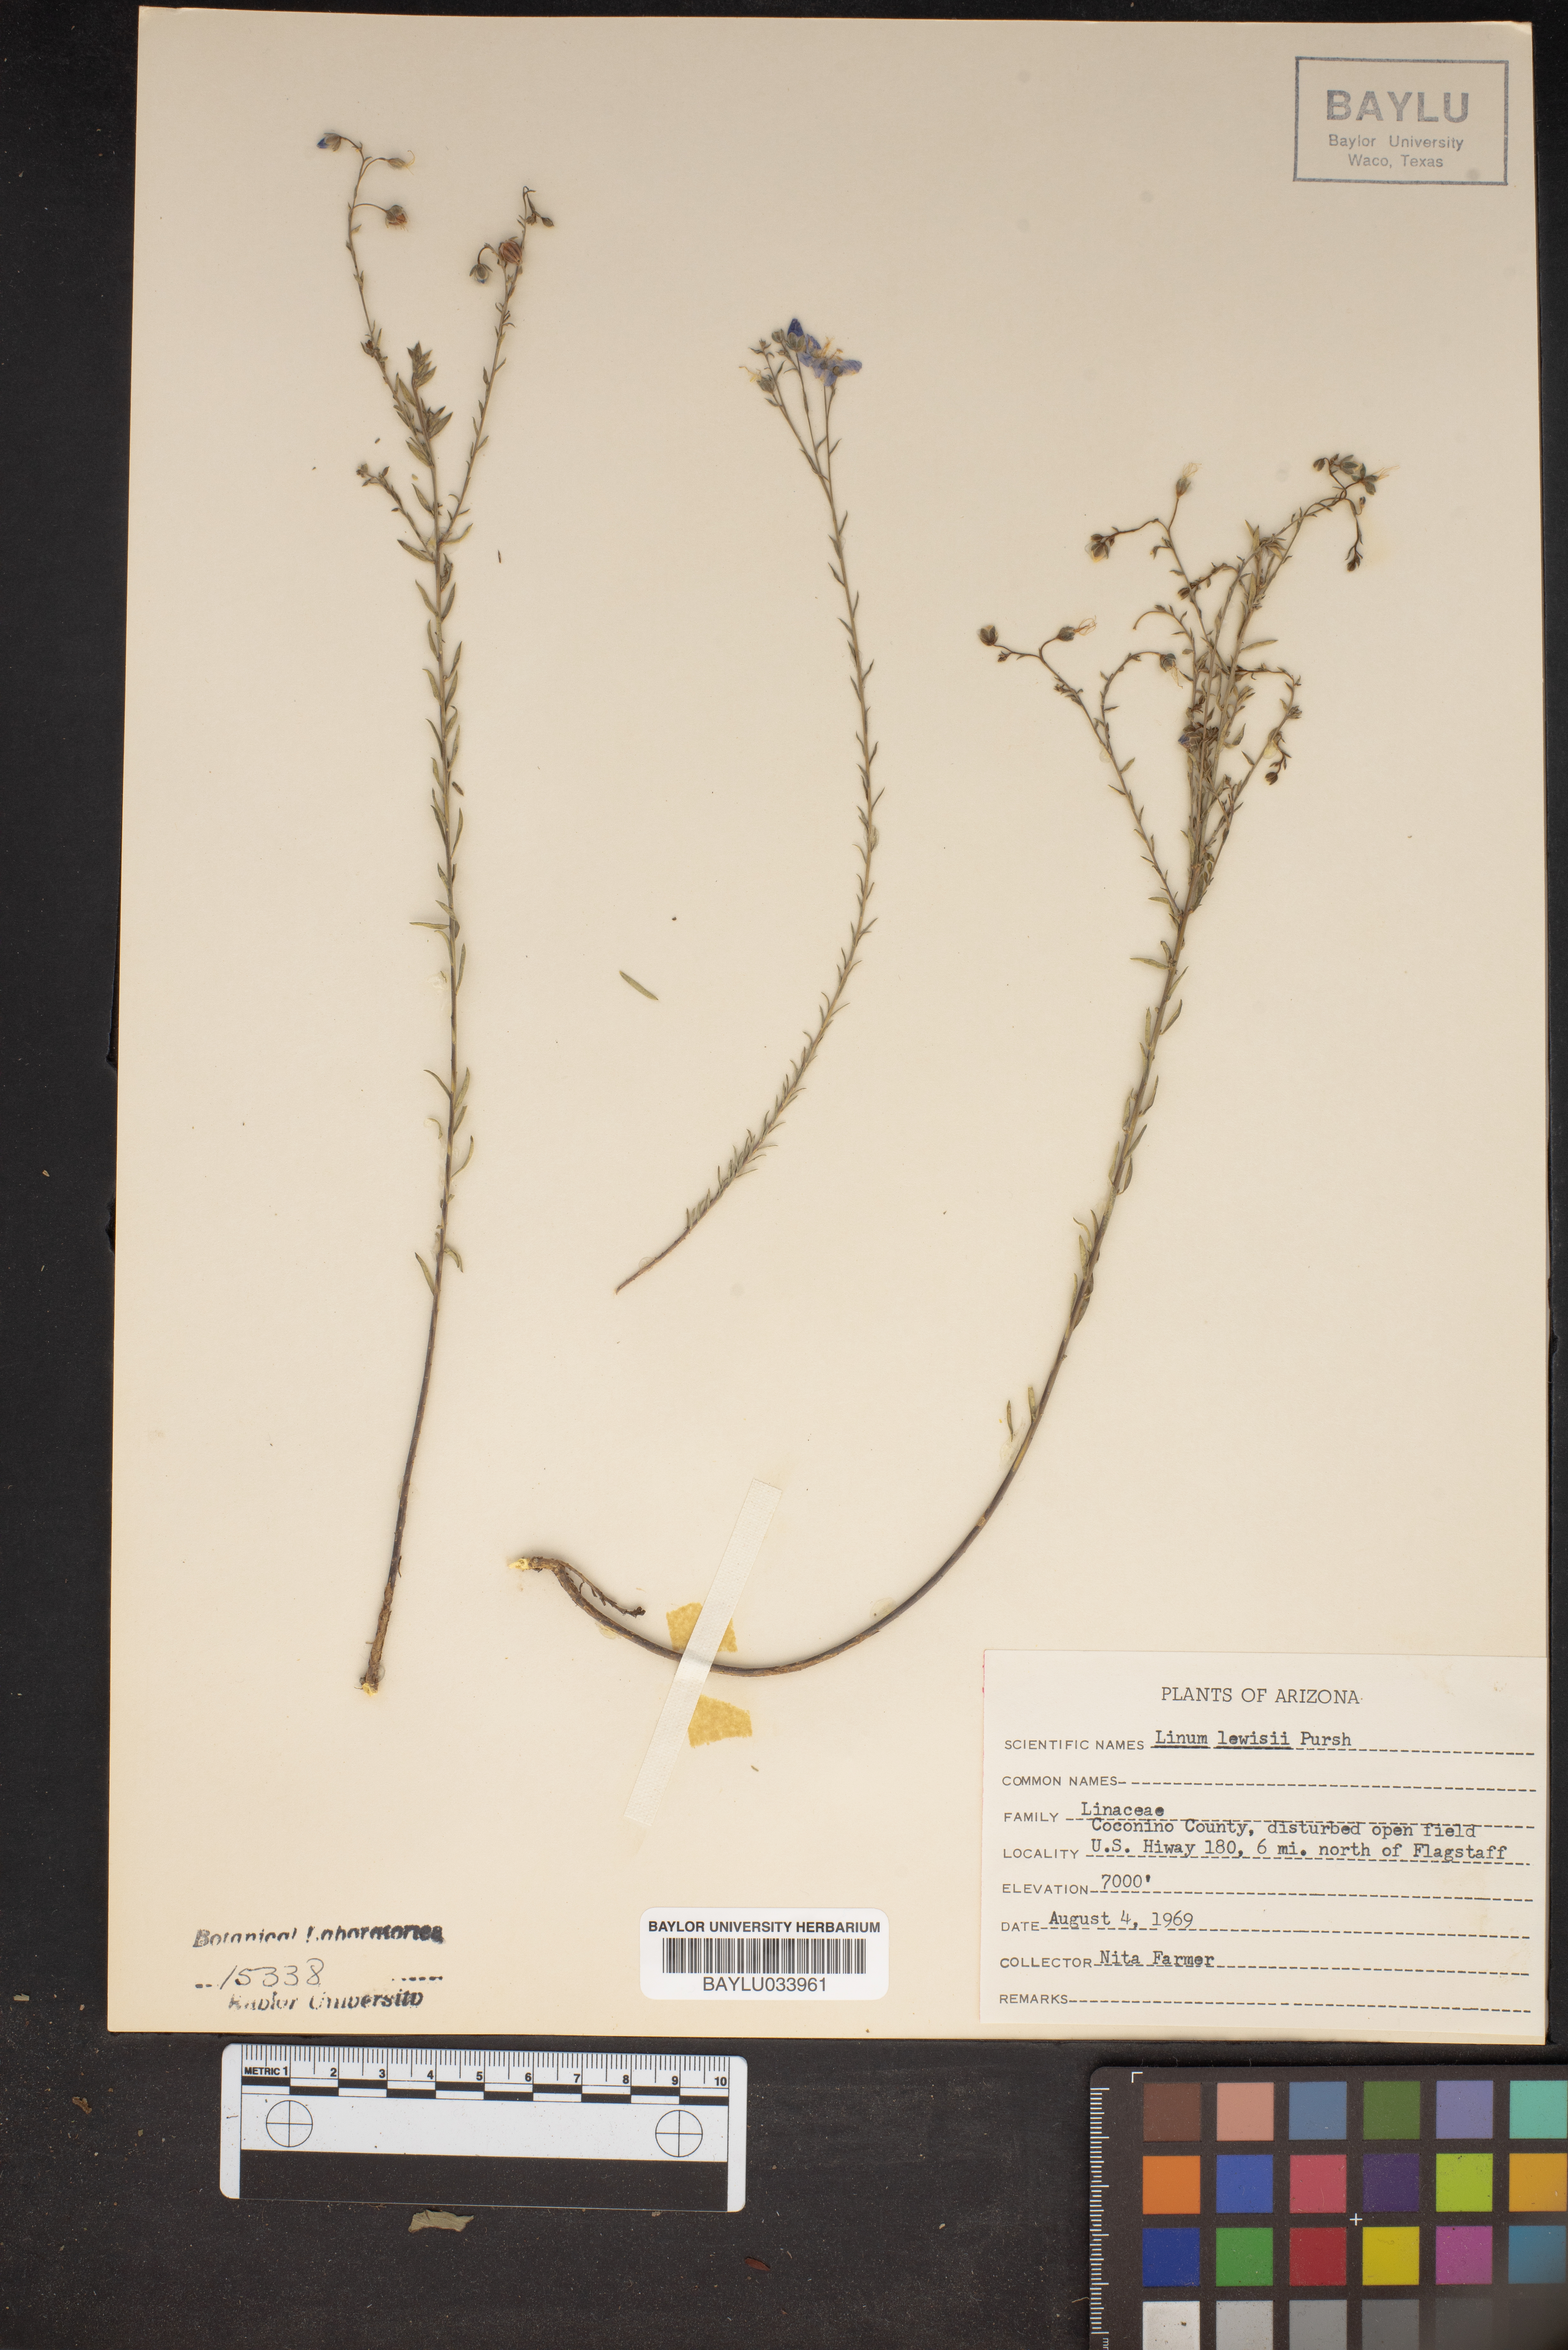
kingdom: Plantae
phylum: Tracheophyta
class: Magnoliopsida
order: Malpighiales
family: Linaceae
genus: Linum
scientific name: Linum lewisii
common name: Prairie flax
